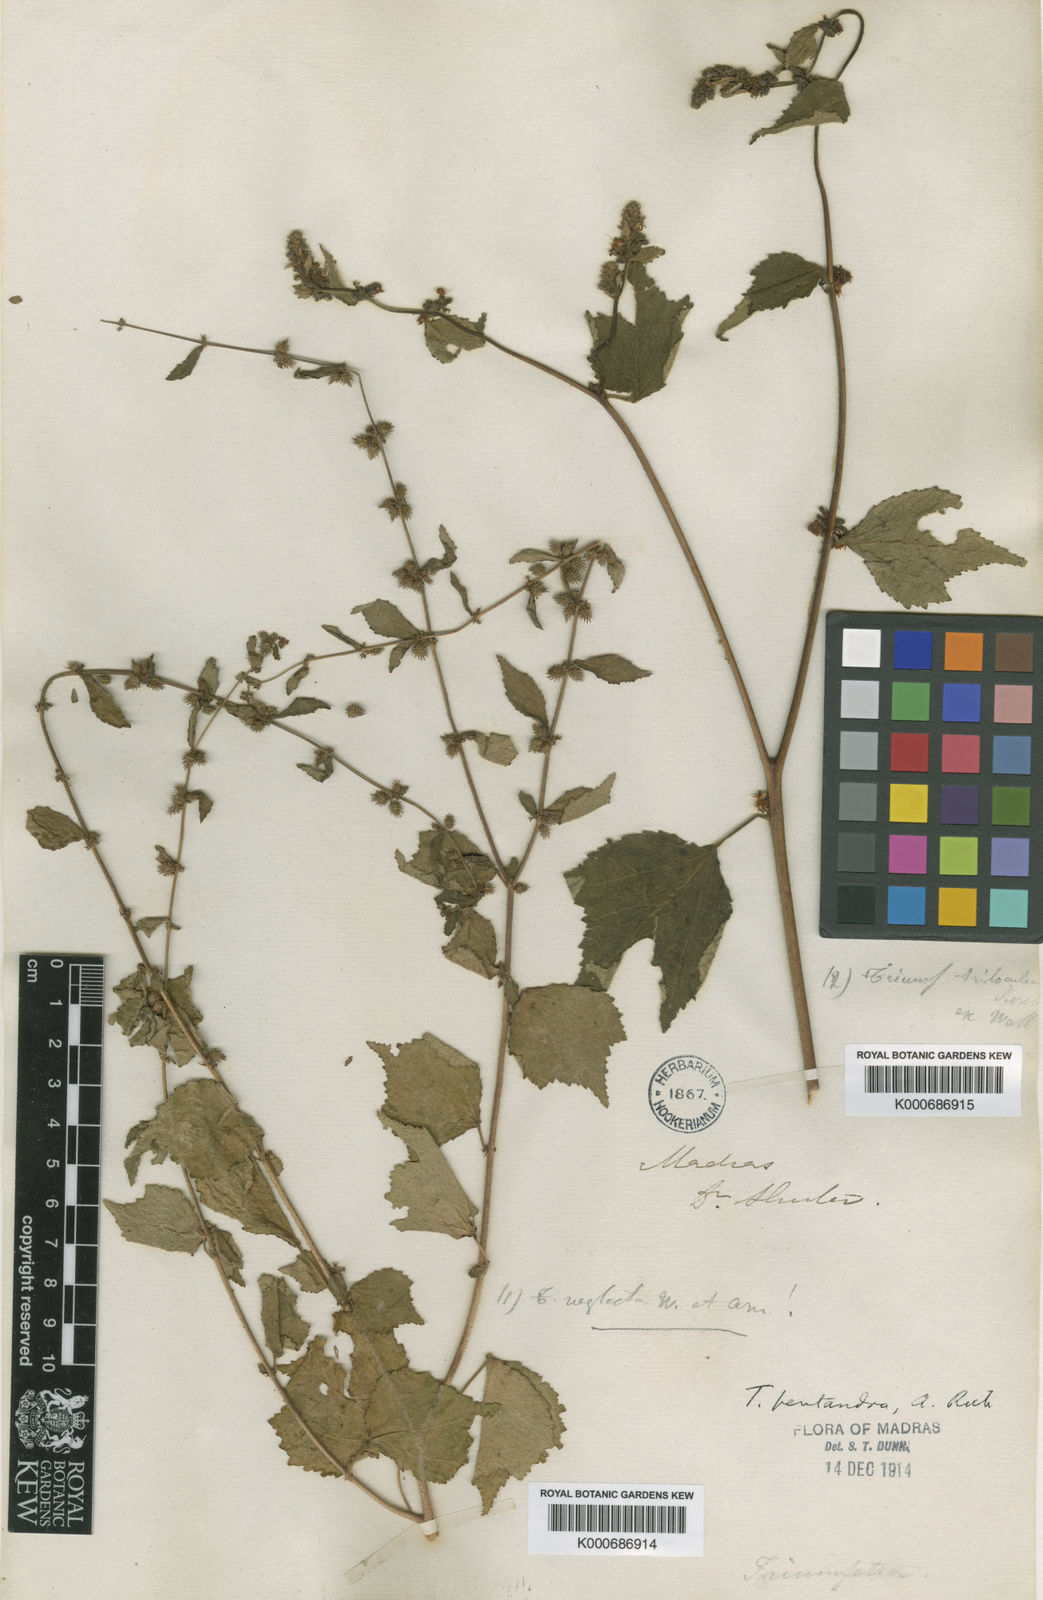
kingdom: Plantae
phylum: Tracheophyta
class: Magnoliopsida
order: Malvales
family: Malvaceae
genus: Triumfetta
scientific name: Triumfetta pentandra
